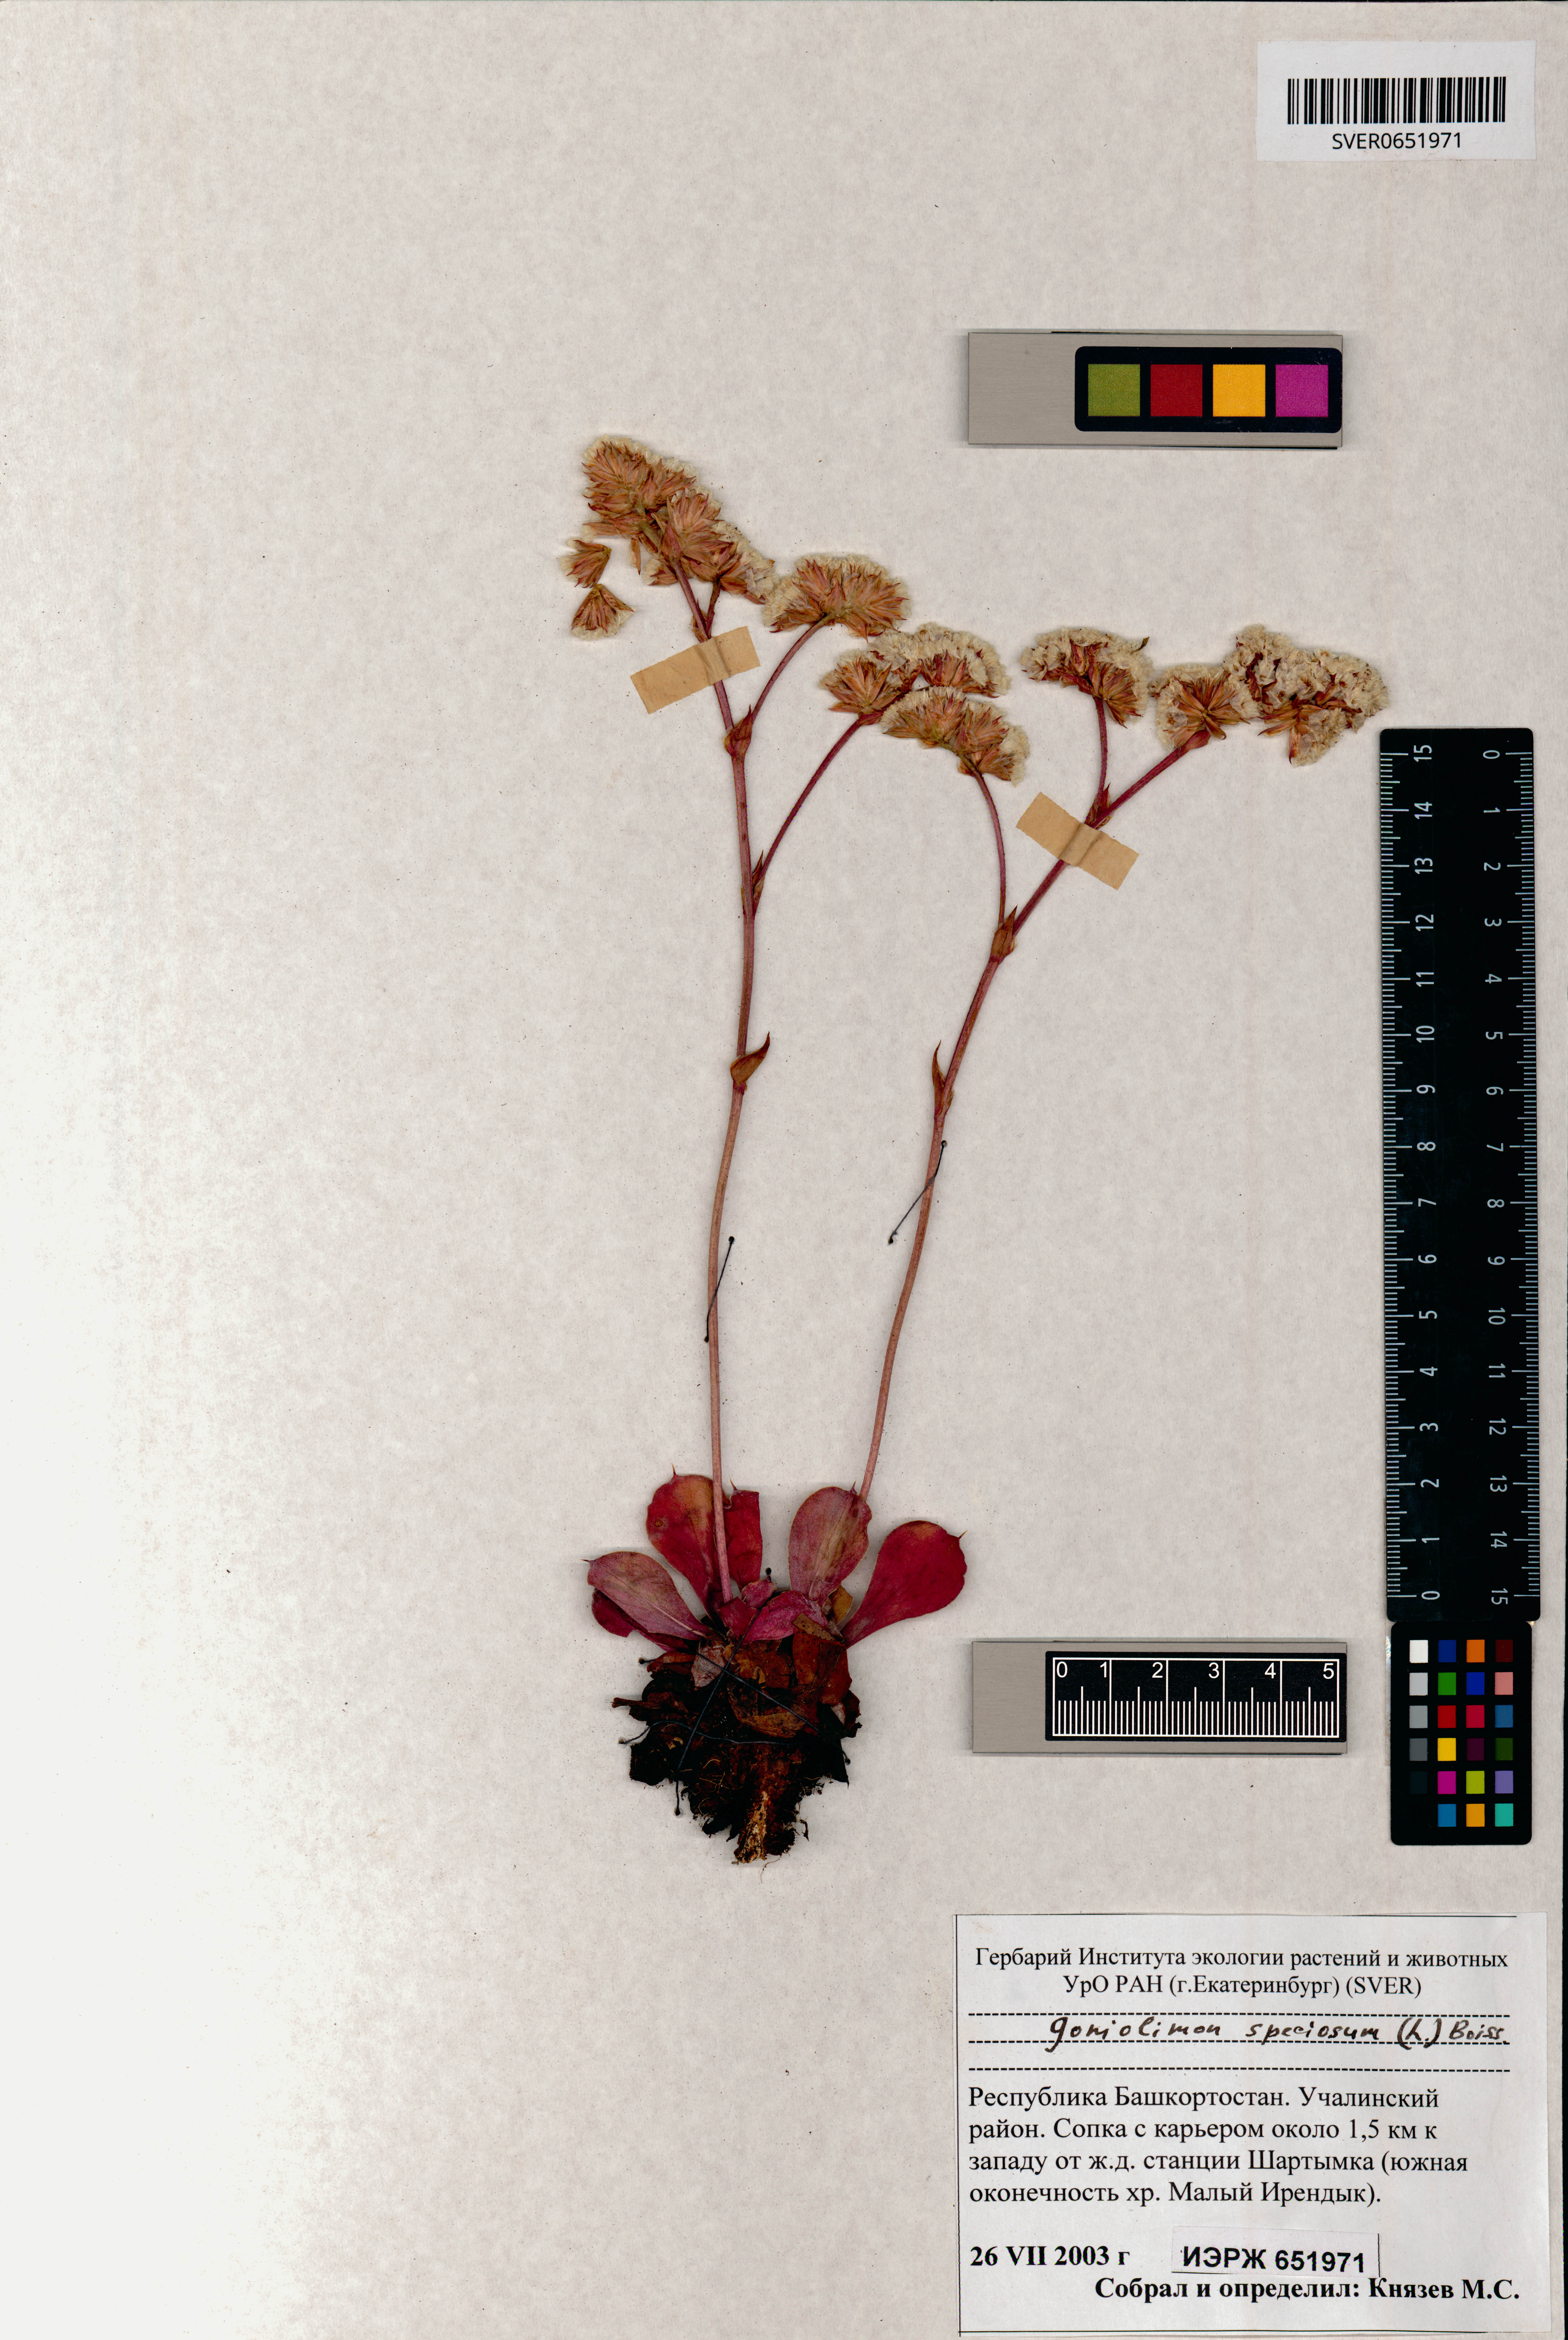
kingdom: Plantae
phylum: Tracheophyta
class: Magnoliopsida
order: Caryophyllales
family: Plumbaginaceae
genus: Goniolimon
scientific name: Goniolimon speciosum
